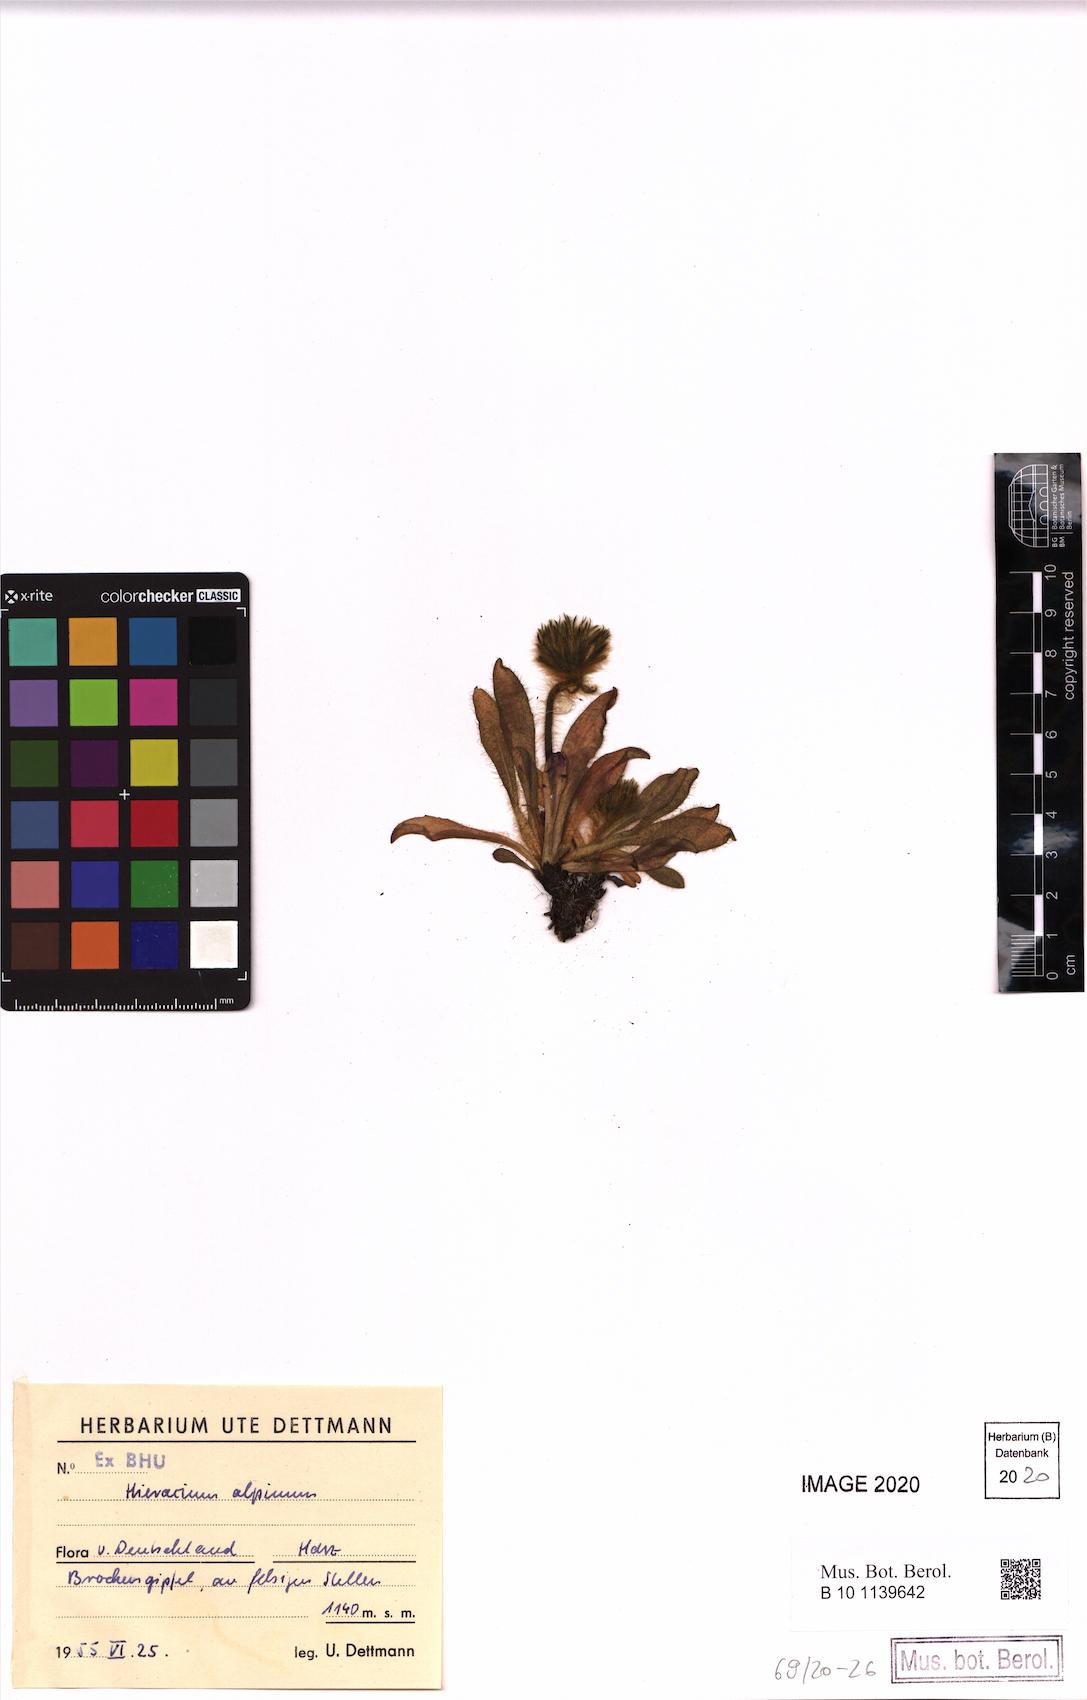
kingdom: Plantae
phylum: Tracheophyta
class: Magnoliopsida
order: Asterales
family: Asteraceae
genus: Hieracium
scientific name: Hieracium alpinum
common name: Alpine hawkweed
